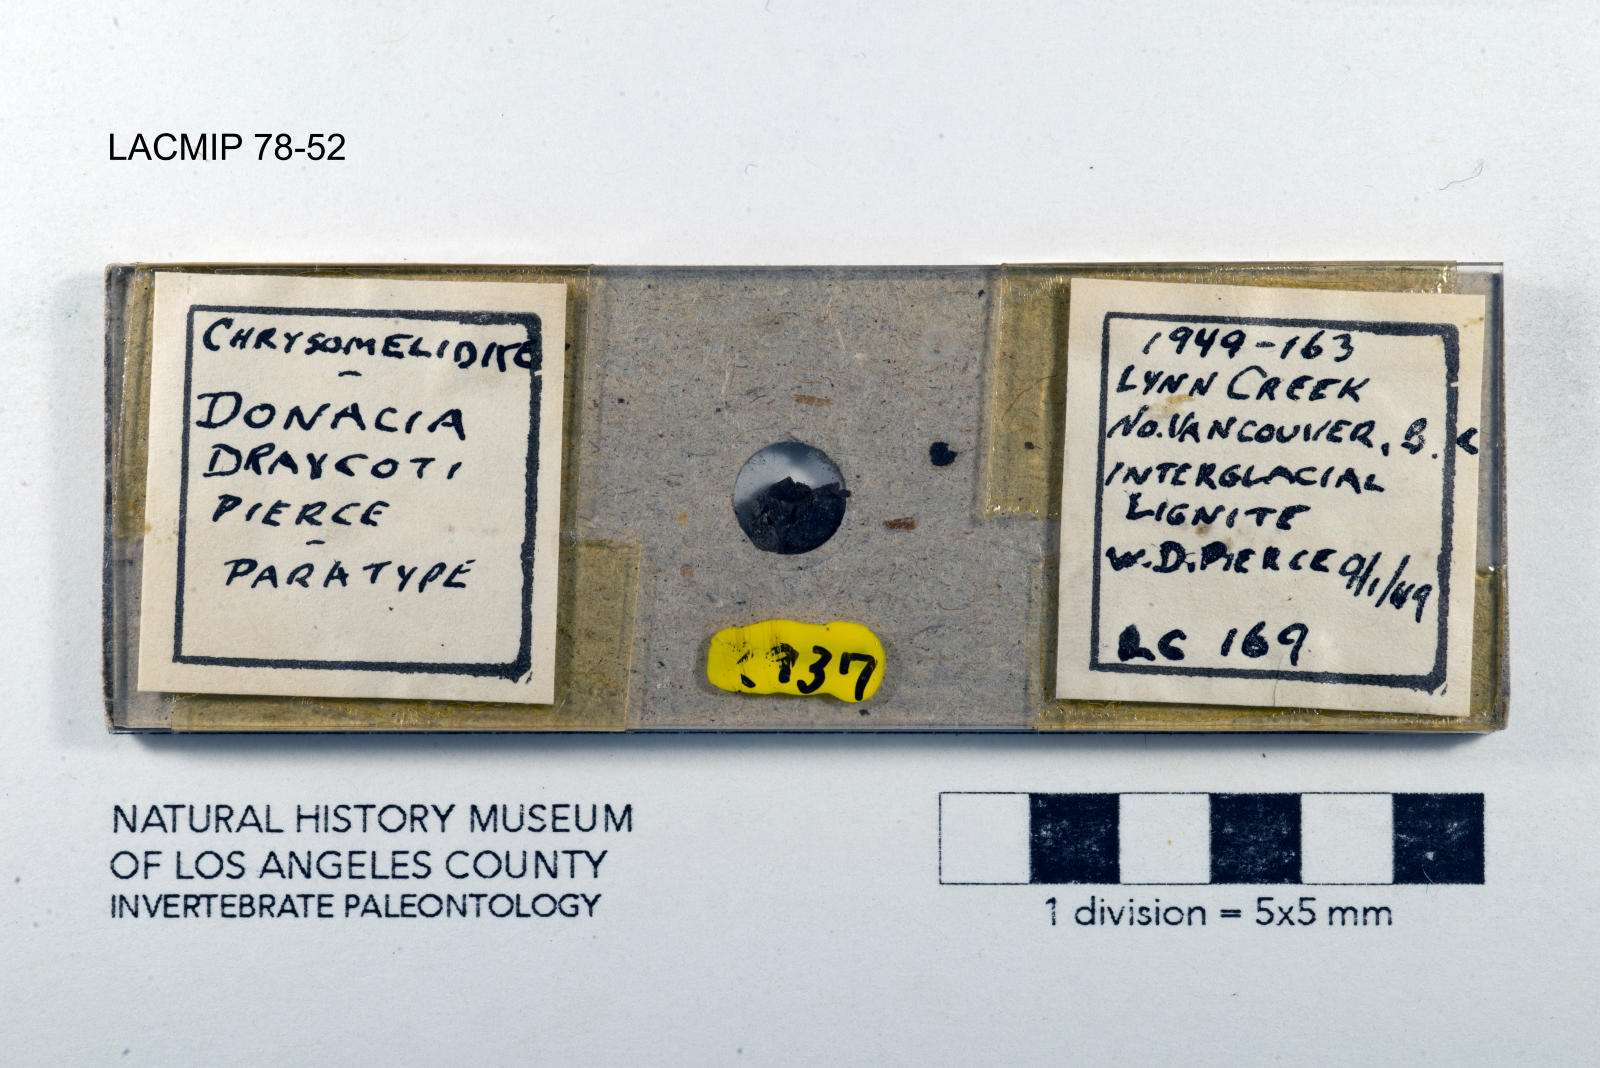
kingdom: Animalia
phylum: Arthropoda
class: Insecta
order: Coleoptera
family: Chrysomelidae
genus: Donacia
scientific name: Donacia draycoti
